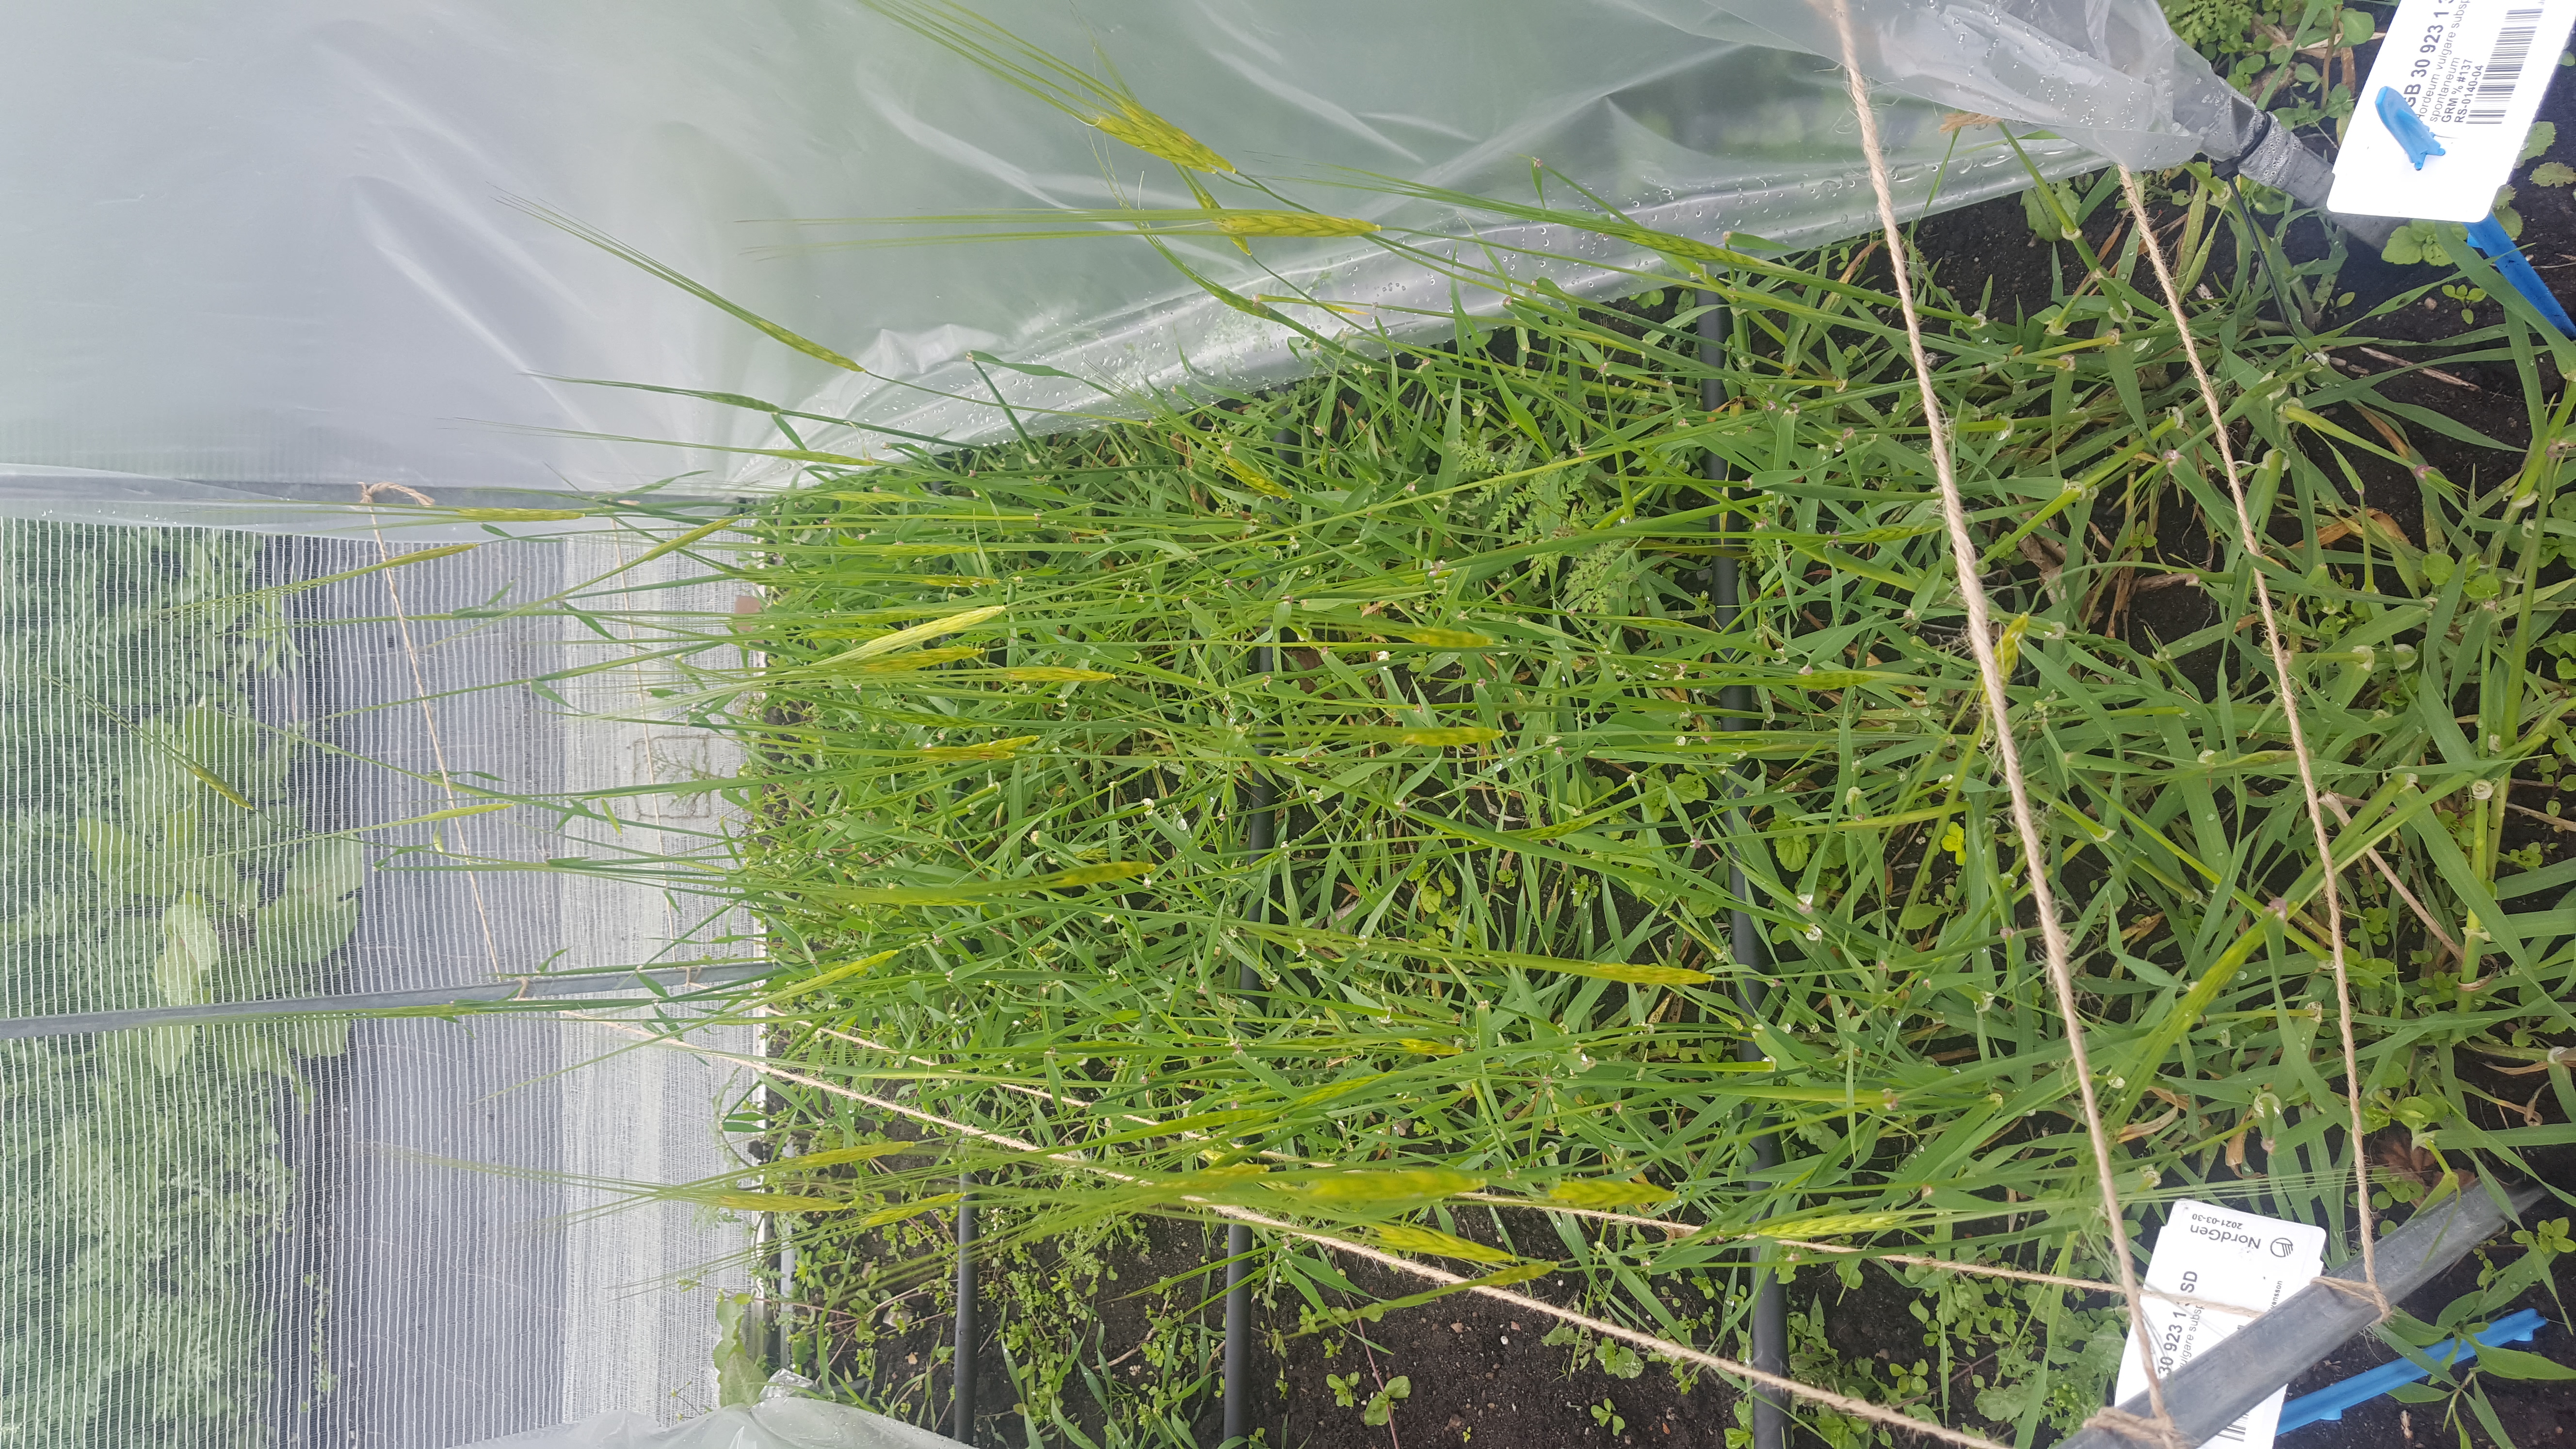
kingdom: Plantae
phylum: Tracheophyta
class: Liliopsida
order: Poales
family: Poaceae
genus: Hordeum
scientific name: Hordeum spontaneum
